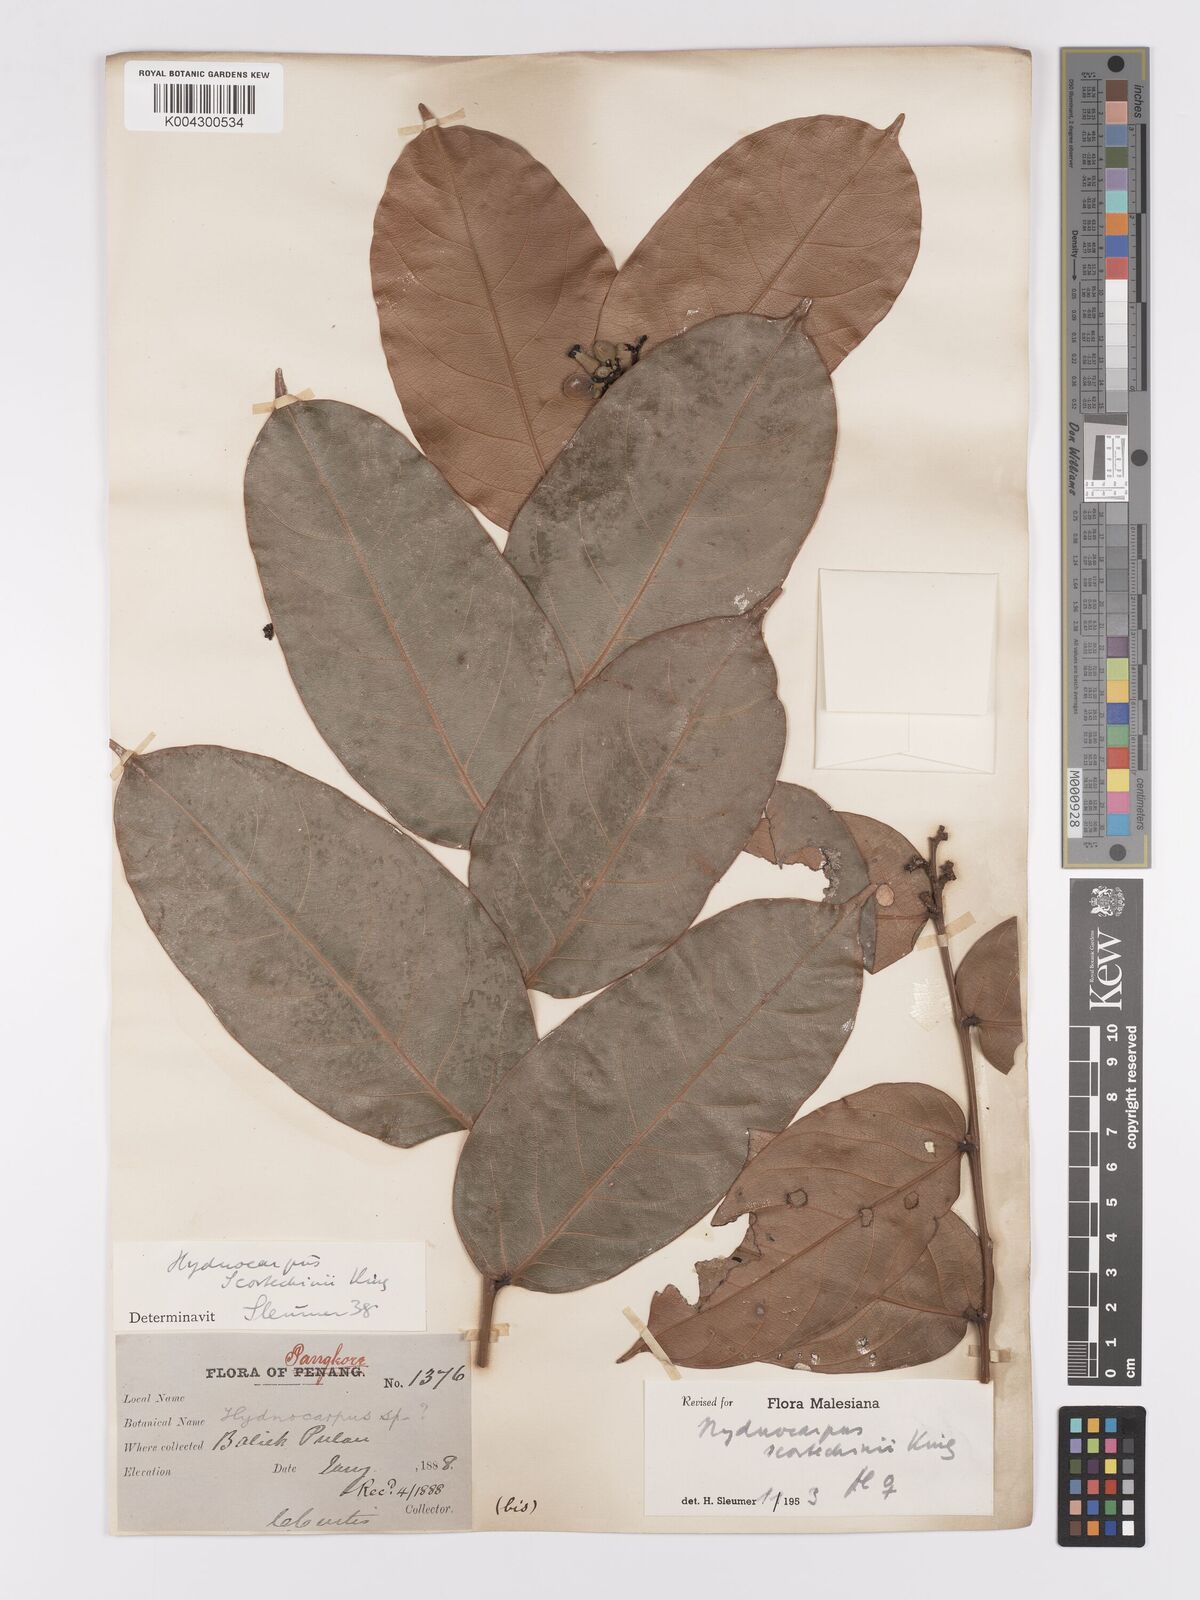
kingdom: Plantae
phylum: Tracheophyta
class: Magnoliopsida
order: Malpighiales
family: Achariaceae
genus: Hydnocarpus
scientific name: Hydnocarpus scortechinii
